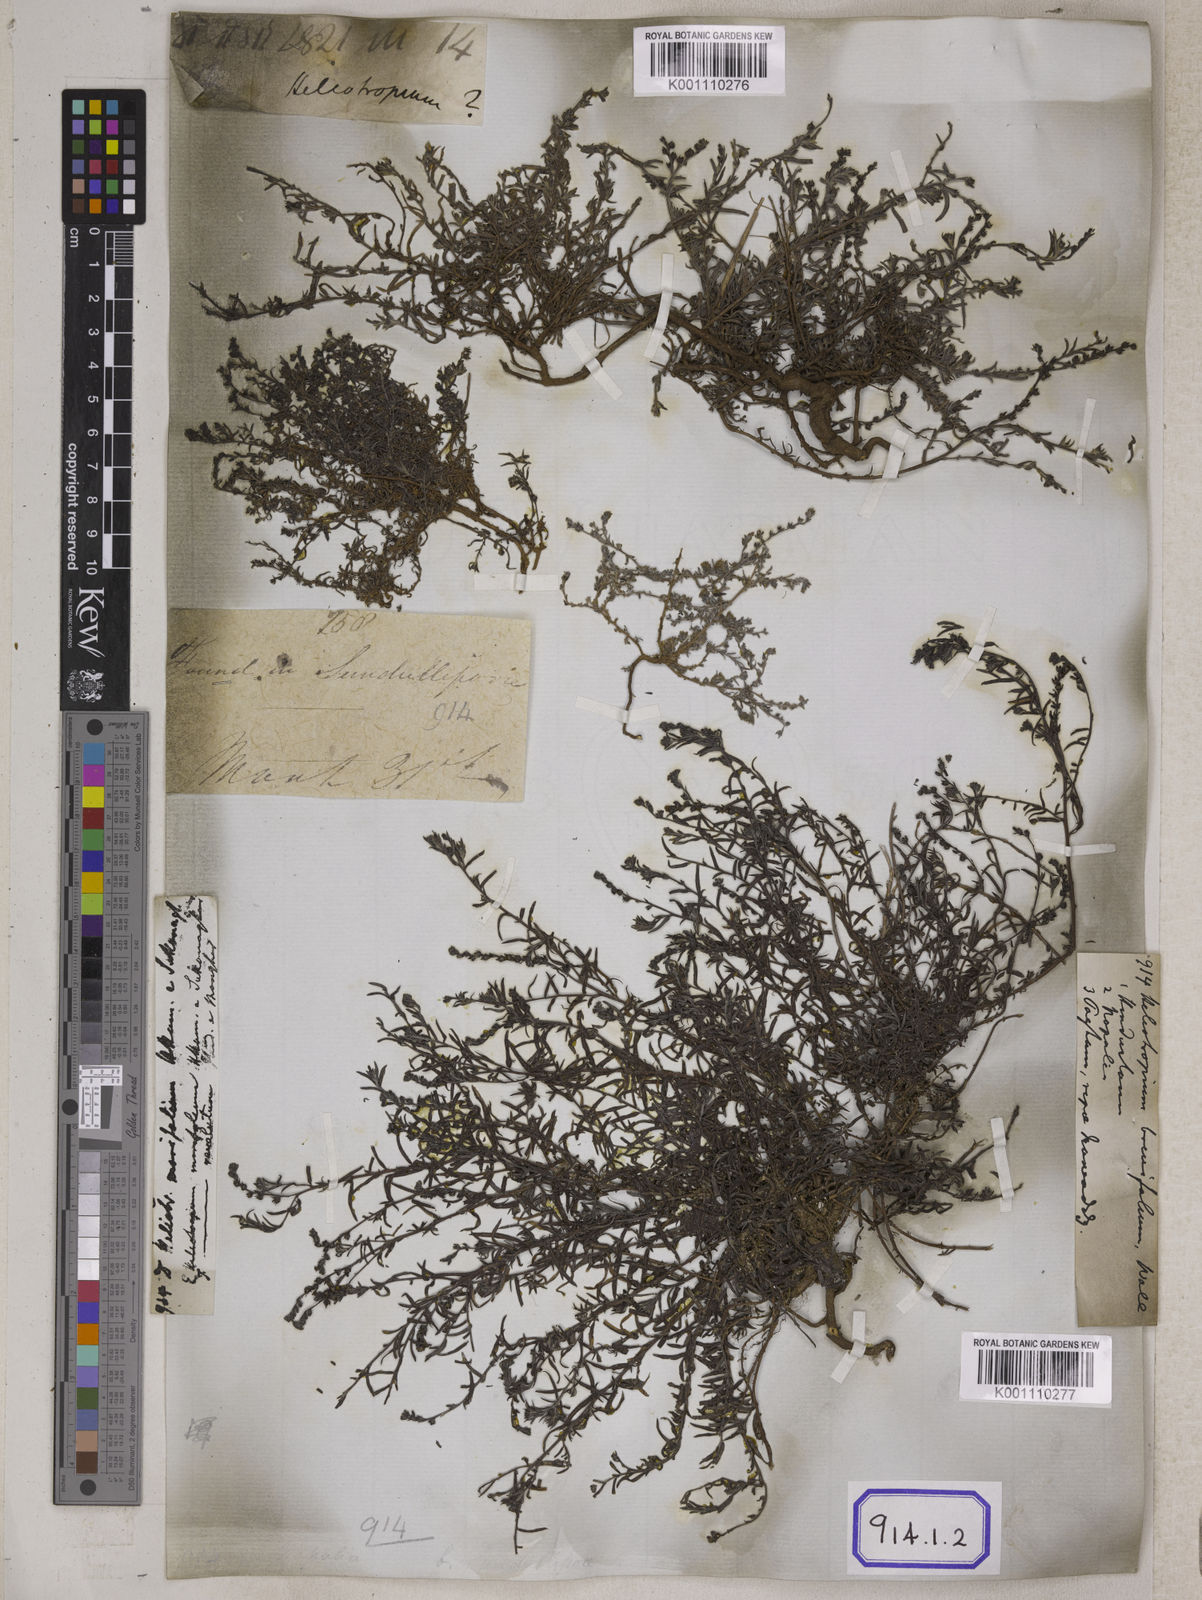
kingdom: Plantae
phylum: Tracheophyta
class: Magnoliopsida
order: Boraginales
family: Heliotropiaceae
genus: Euploca
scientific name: Euploca strigosa
